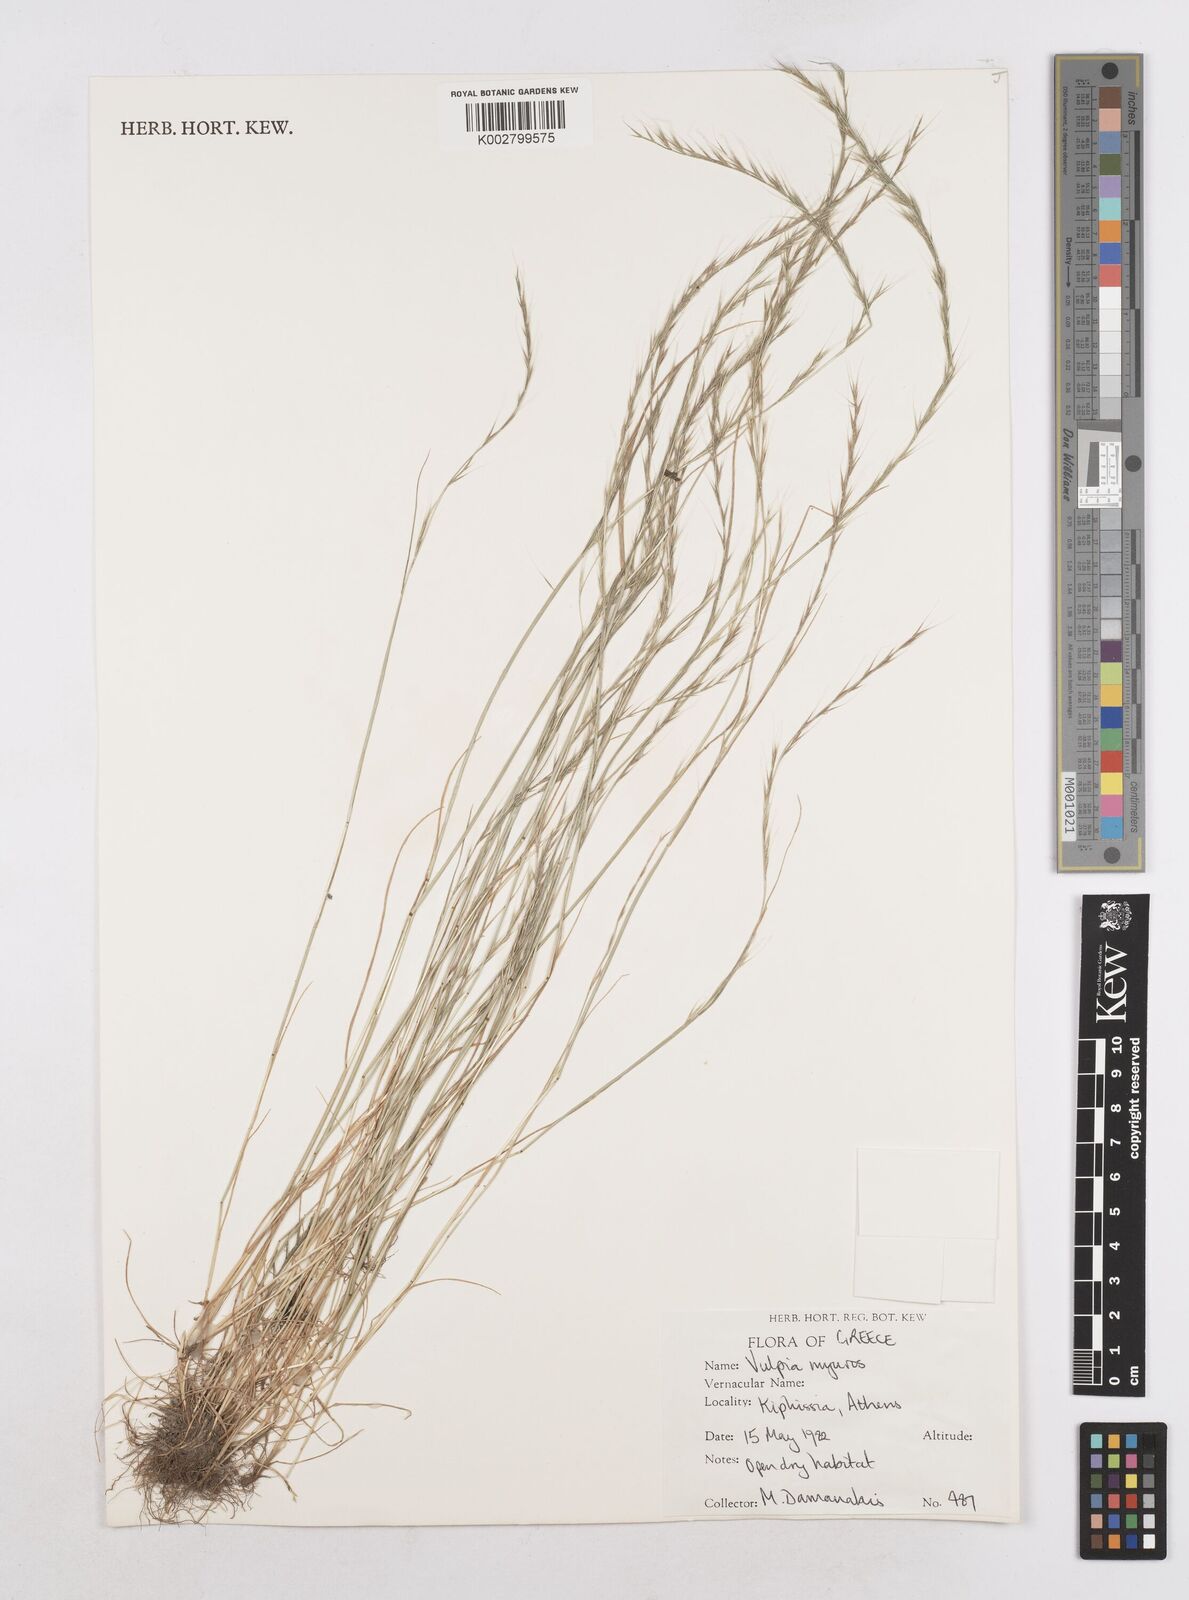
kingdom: Plantae
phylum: Tracheophyta
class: Liliopsida
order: Poales
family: Poaceae
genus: Festuca
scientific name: Festuca myuros
